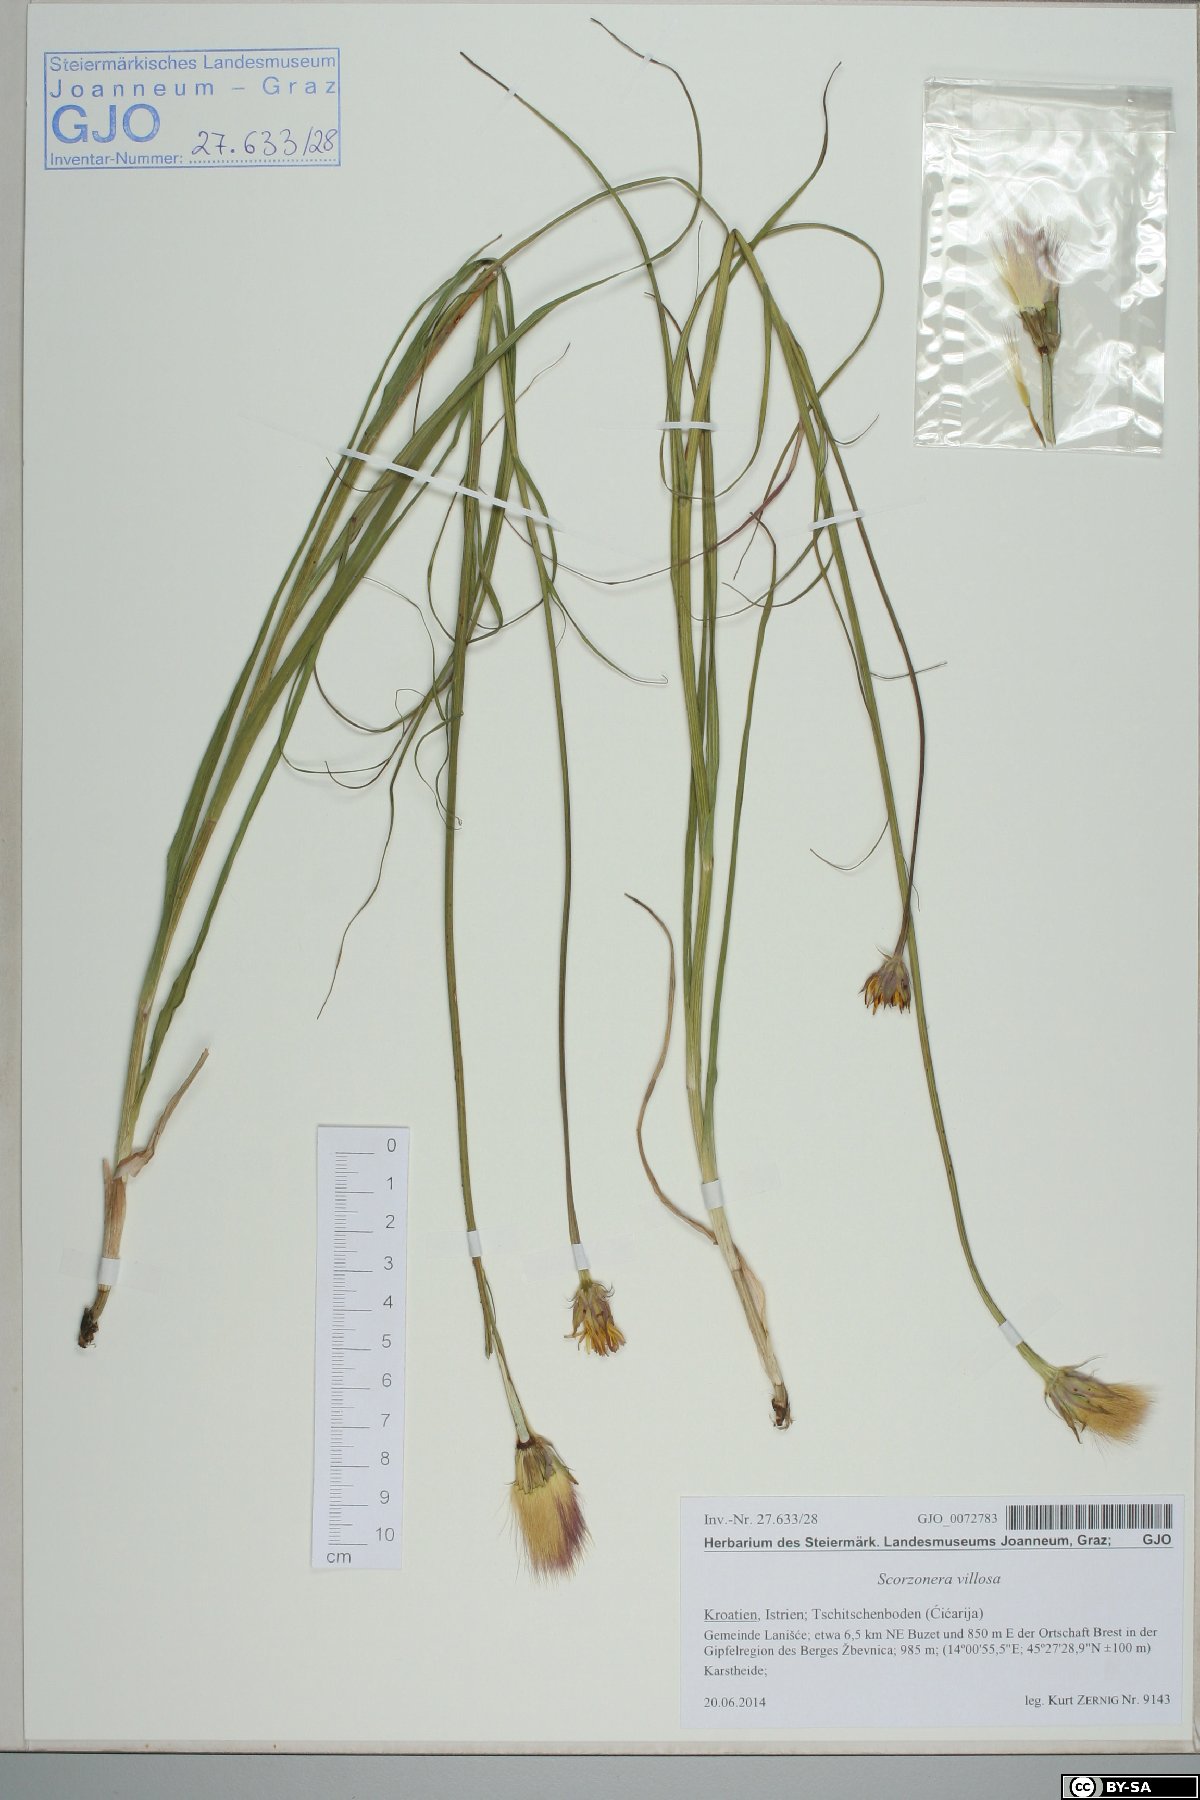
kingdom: Plantae
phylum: Tracheophyta
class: Magnoliopsida
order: Asterales
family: Asteraceae
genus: Gelasia
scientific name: Gelasia villosa
